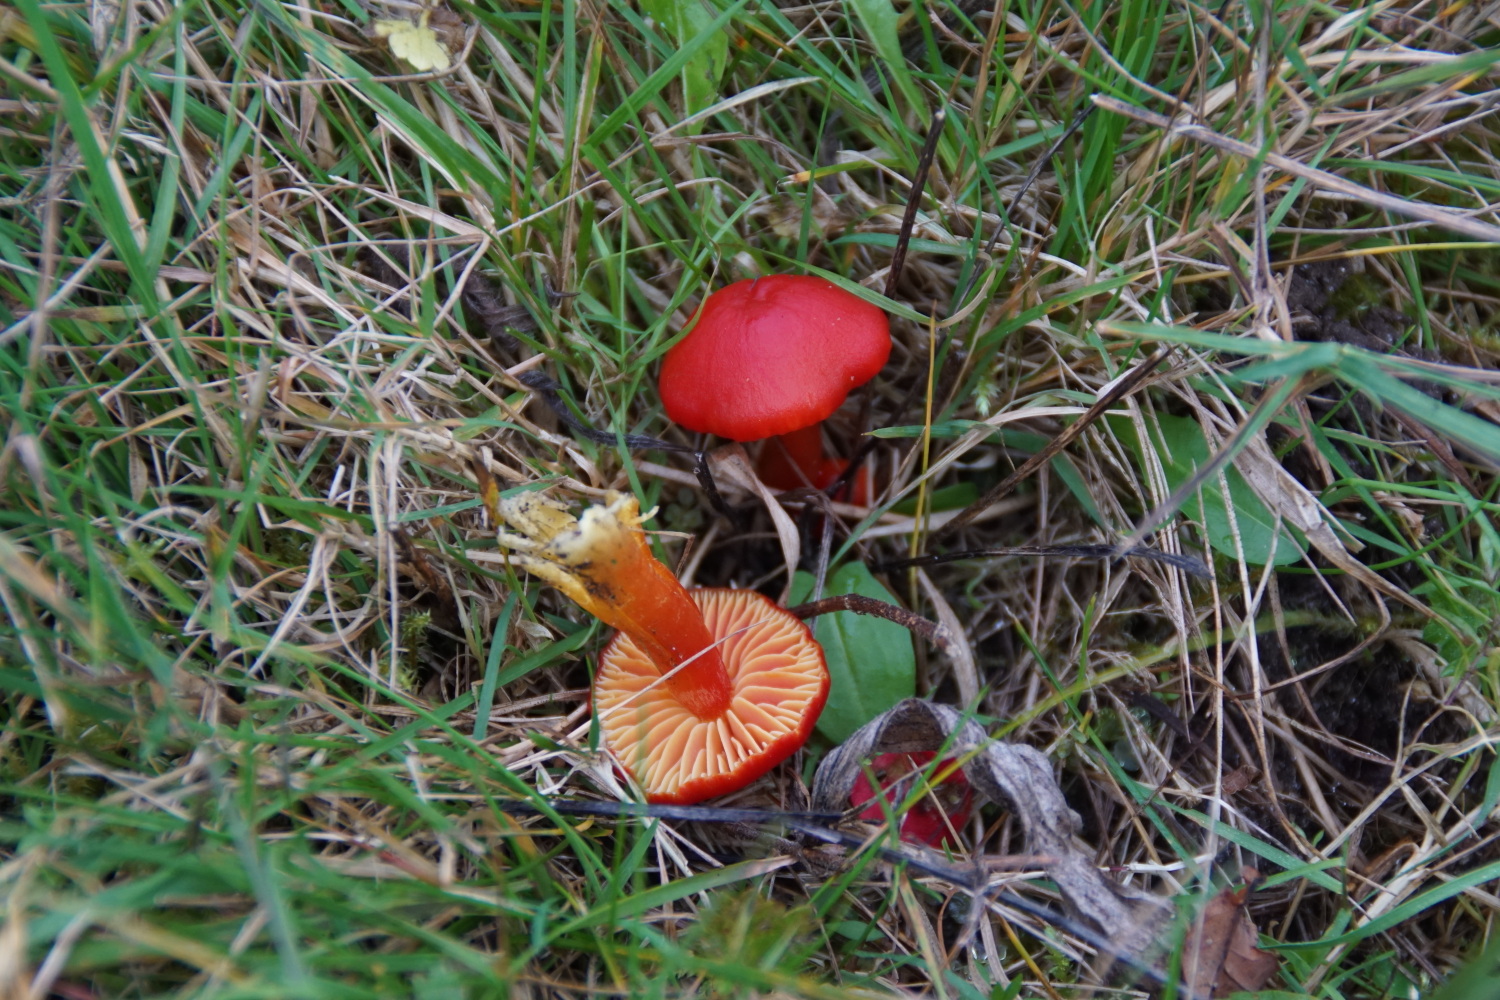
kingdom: Fungi
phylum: Basidiomycota
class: Agaricomycetes
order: Agaricales
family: Hygrophoraceae
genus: Hygrocybe
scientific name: Hygrocybe coccinea
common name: cinnober-vokshat
